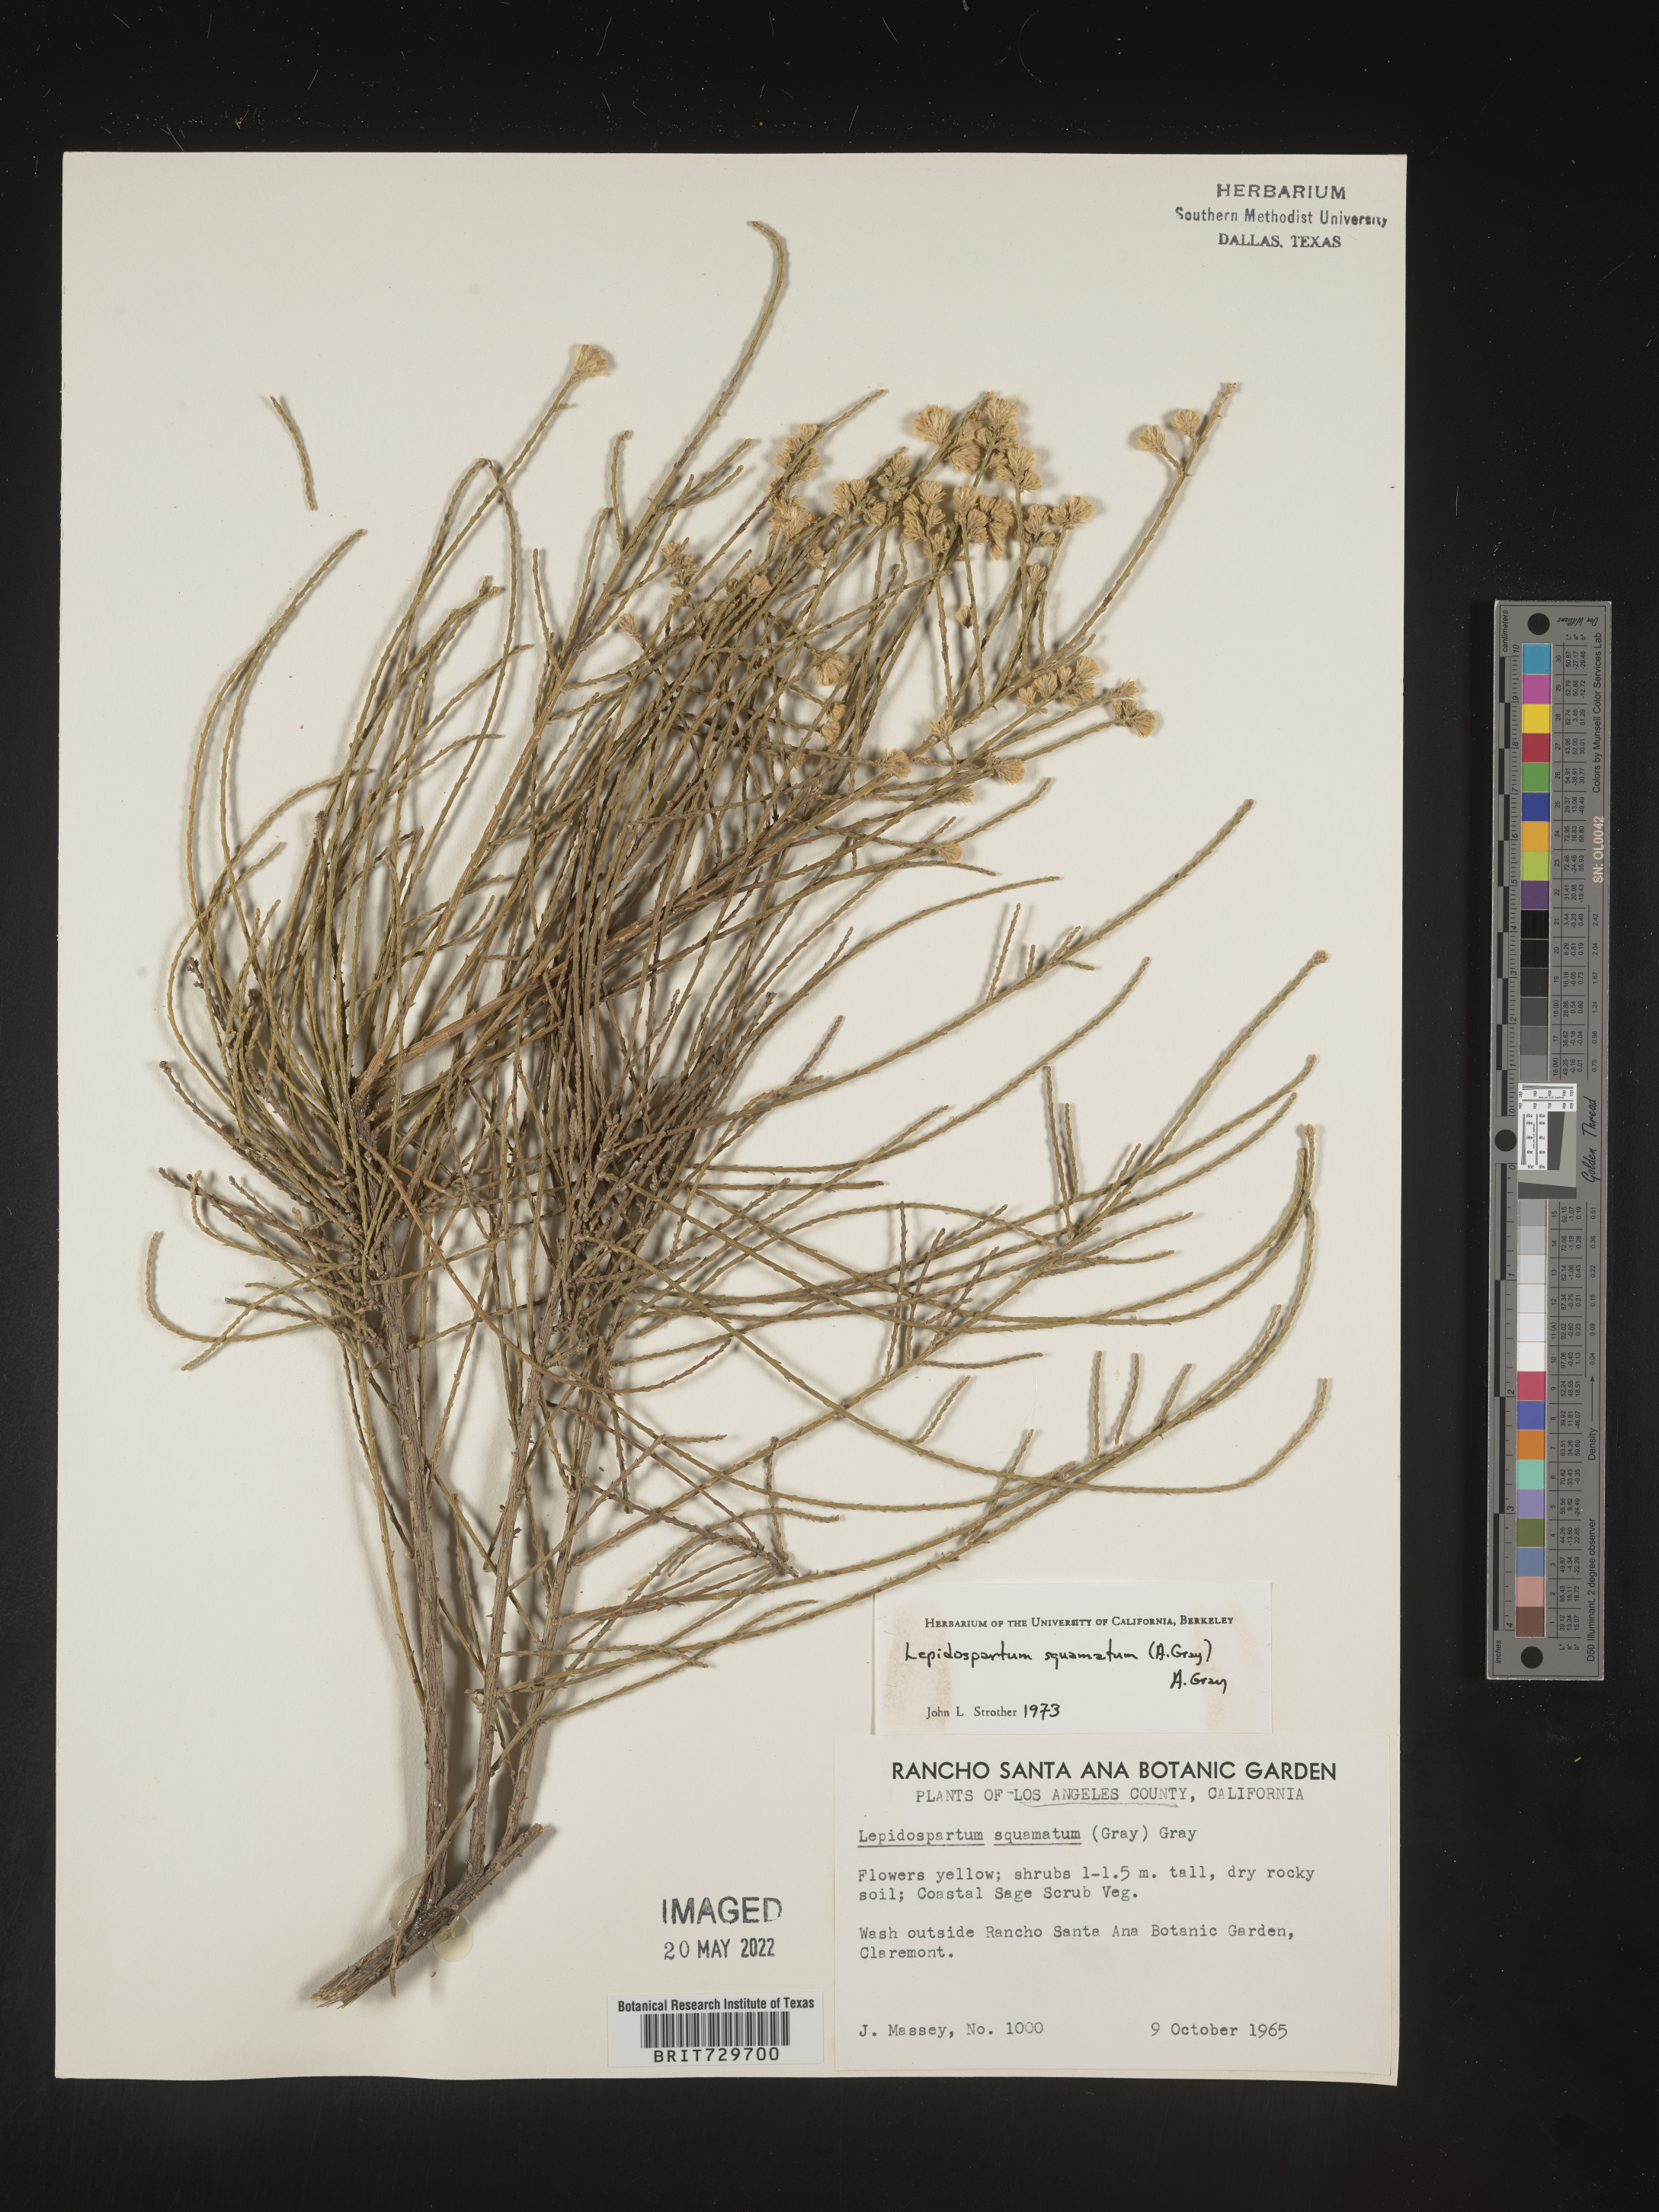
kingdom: Plantae
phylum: Tracheophyta
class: Magnoliopsida
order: Asterales
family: Asteraceae
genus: Lepidospartum
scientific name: Lepidospartum squamatum
